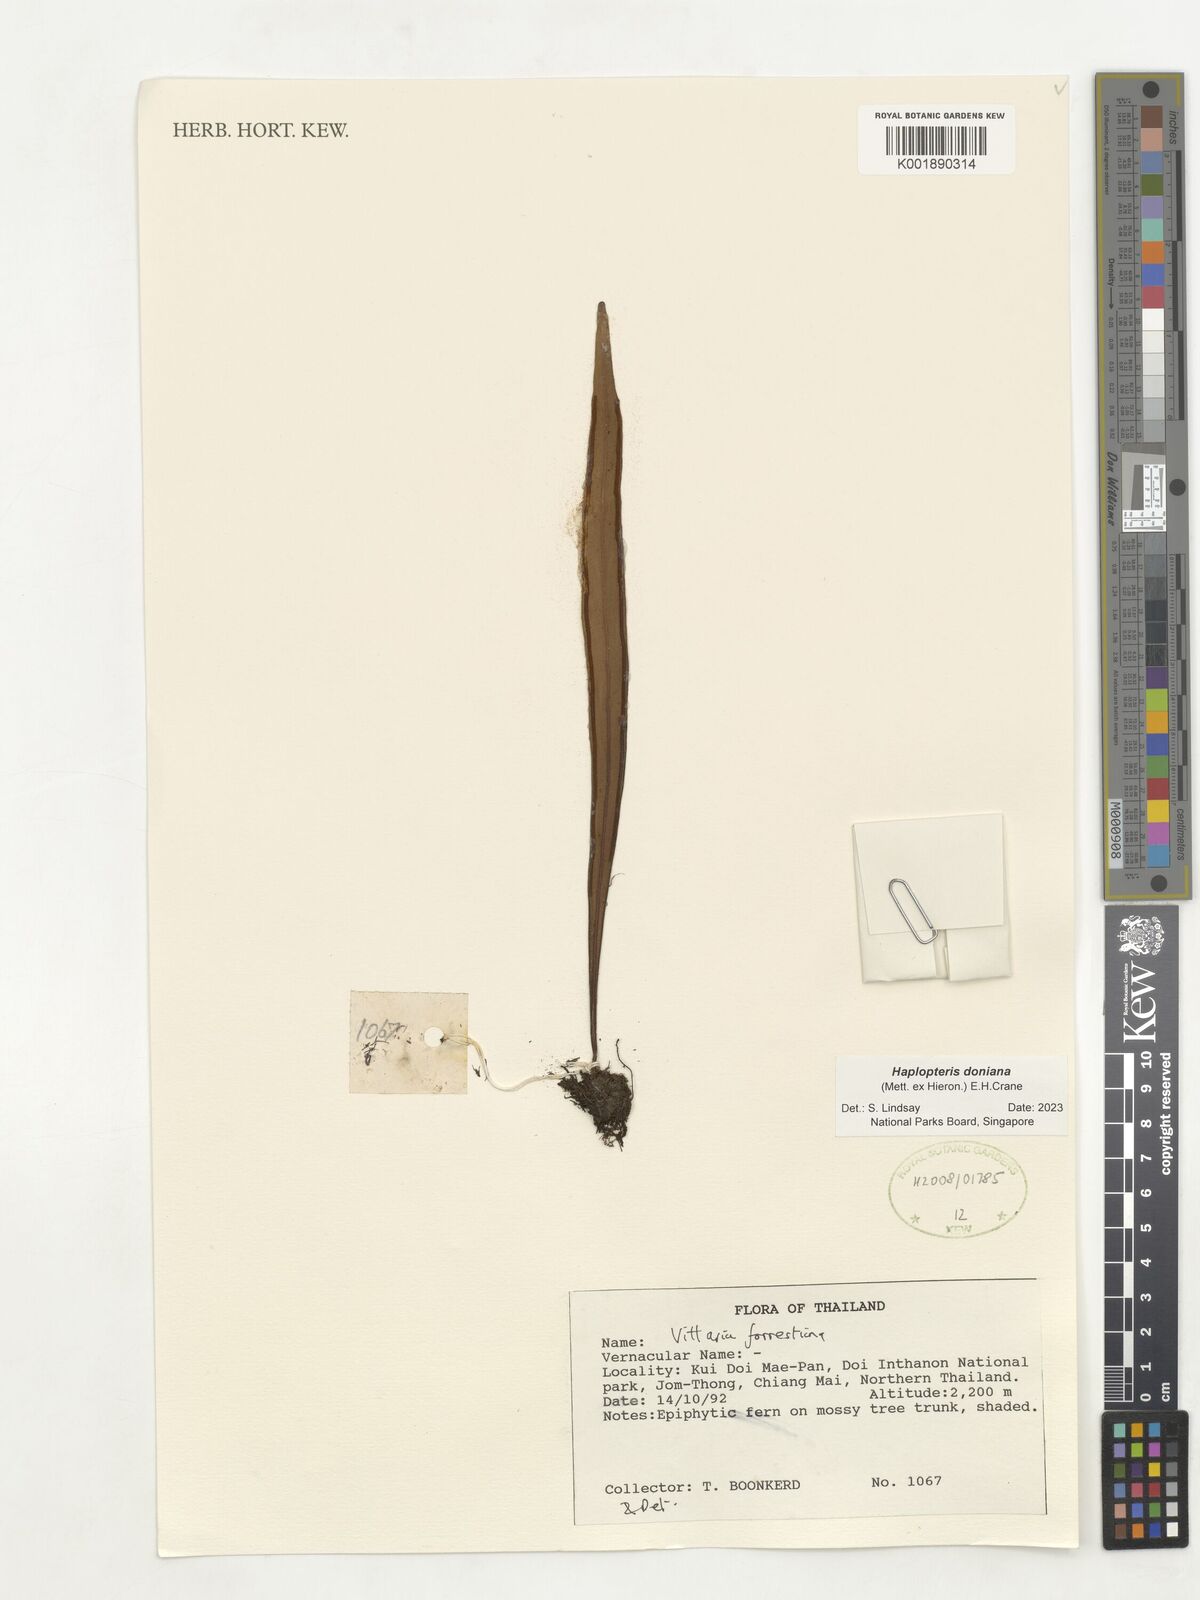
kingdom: Plantae
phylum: Tracheophyta
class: Polypodiopsida
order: Polypodiales
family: Pteridaceae
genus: Haplopteris
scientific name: Haplopteris taeniophylla
